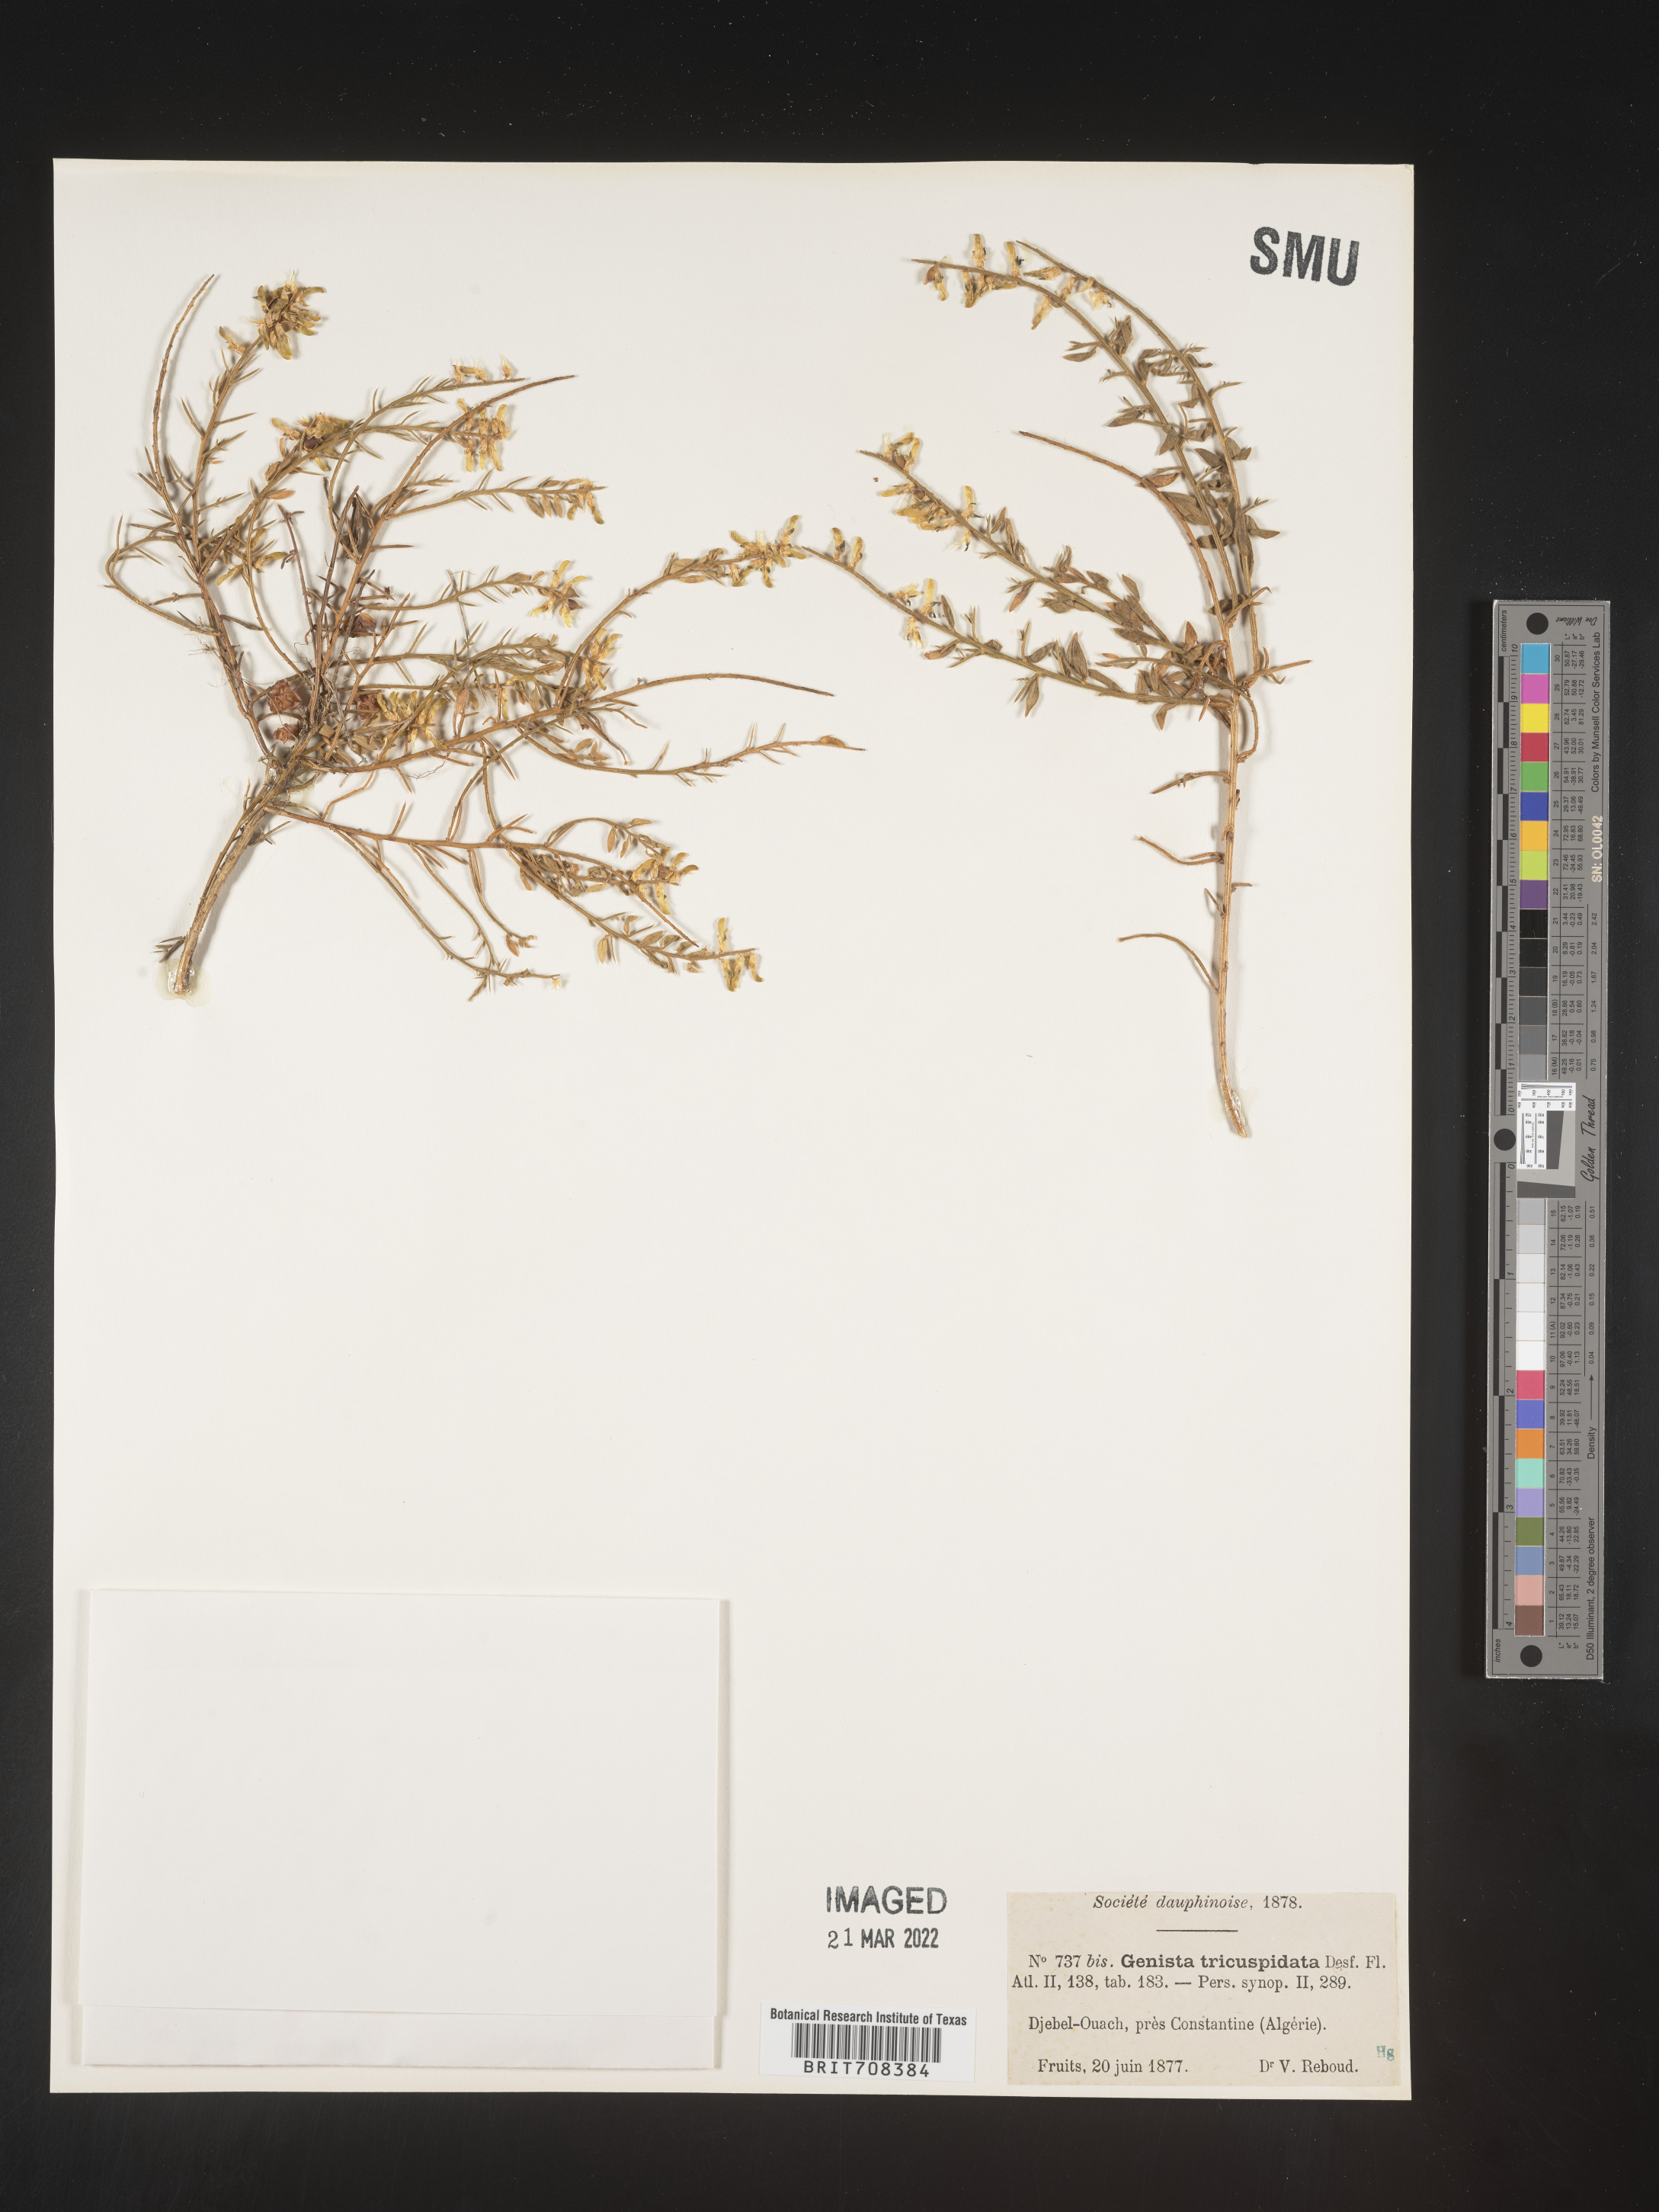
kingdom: Plantae
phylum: Tracheophyta
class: Magnoliopsida
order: Fabales
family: Fabaceae
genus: Genista
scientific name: Genista
